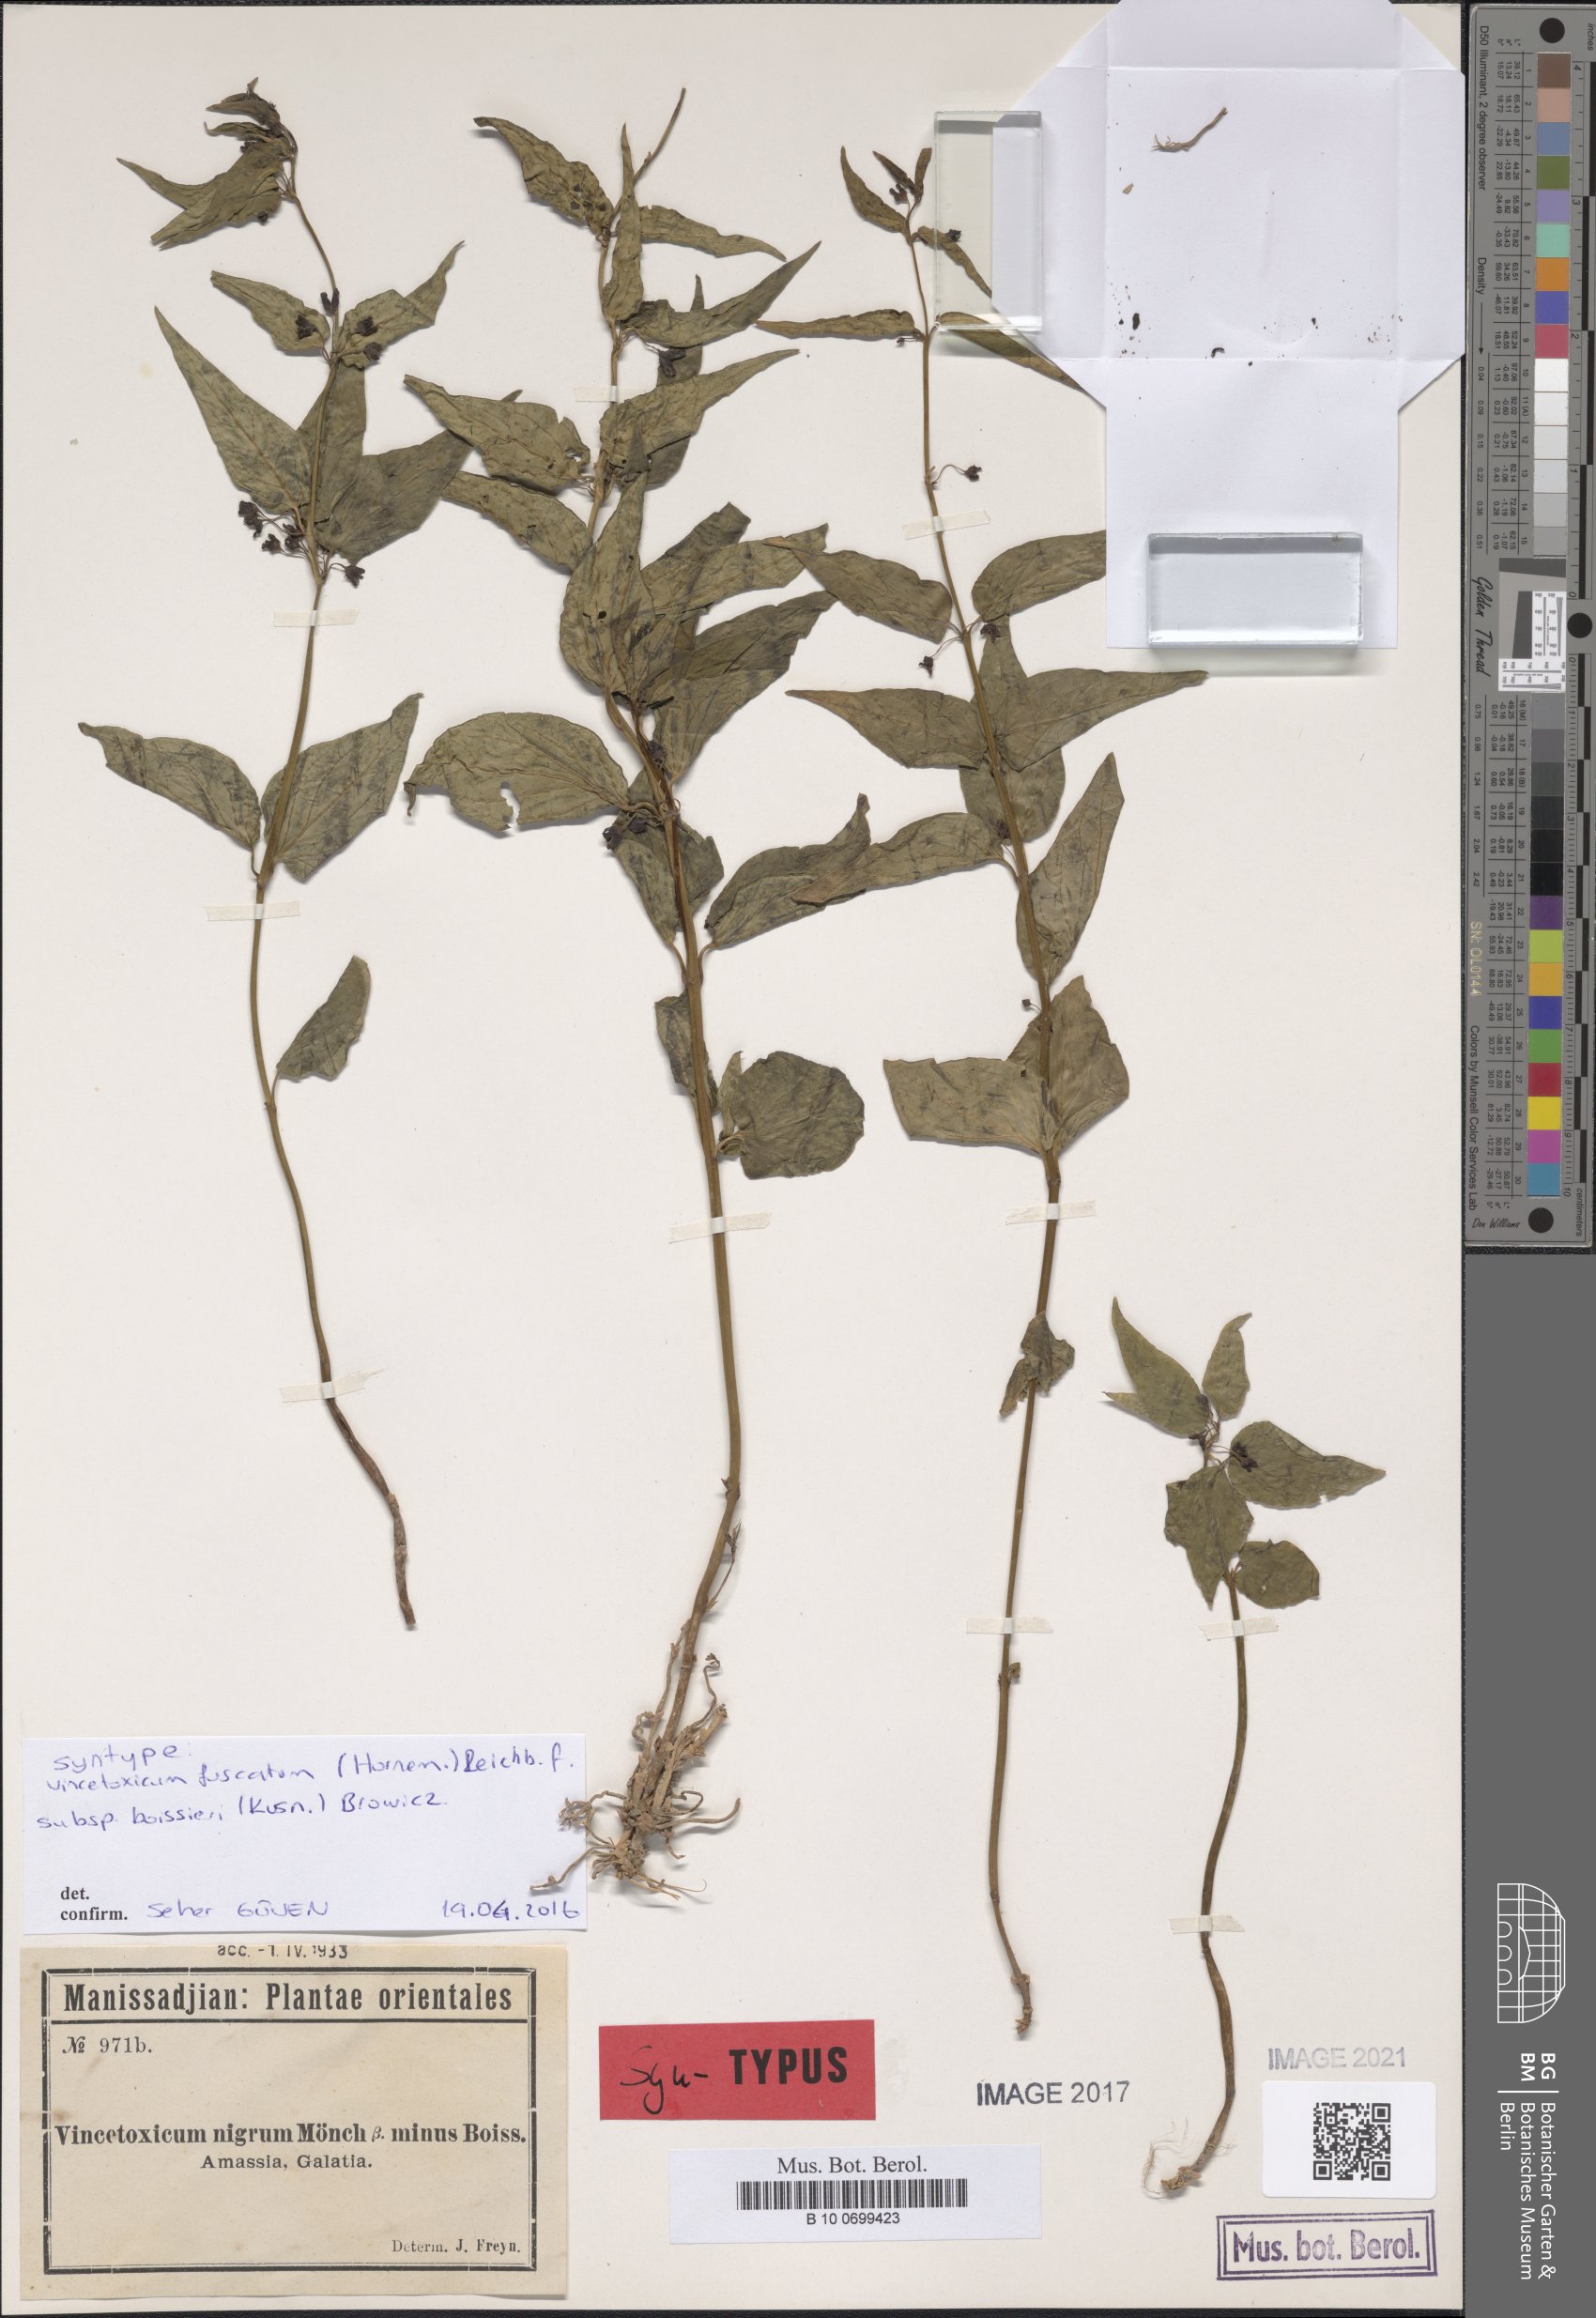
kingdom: Plantae
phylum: Tracheophyta
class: Magnoliopsida
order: Gentianales
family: Apocynaceae
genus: Vincetoxicum
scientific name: Vincetoxicum fuscatum
